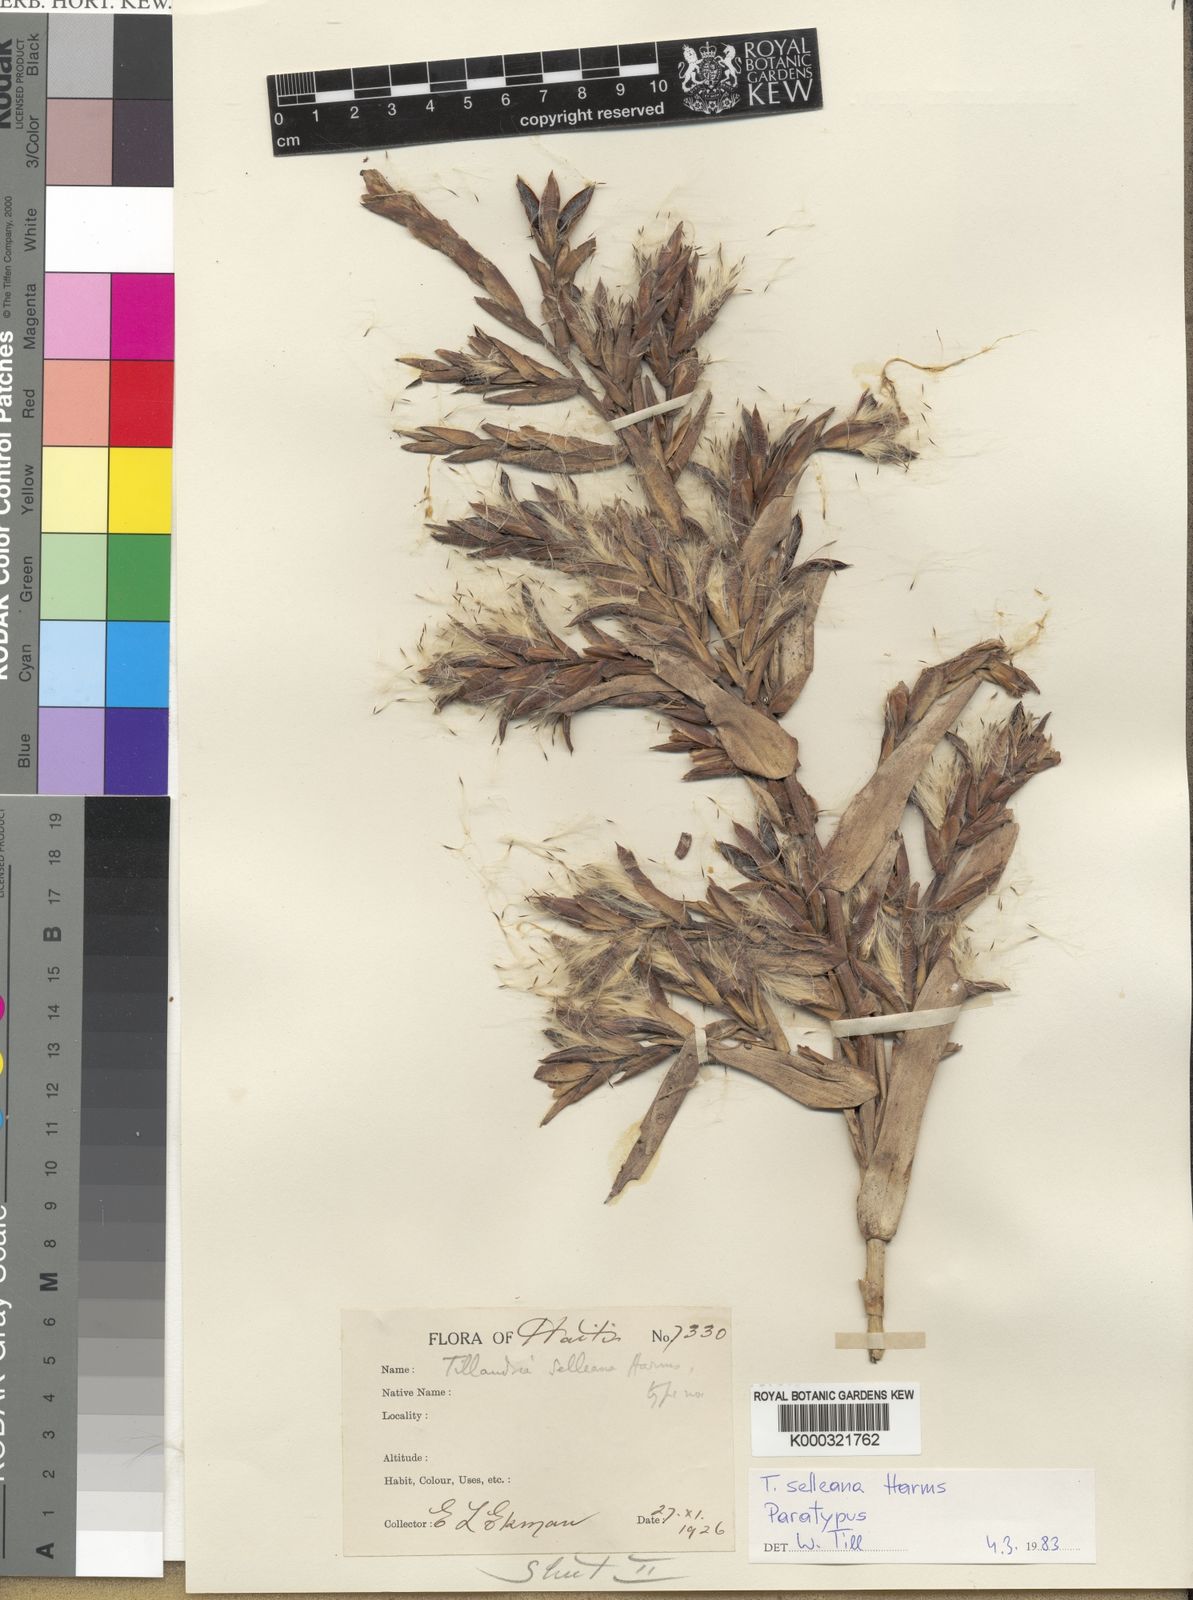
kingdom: Plantae
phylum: Tracheophyta
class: Liliopsida
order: Poales
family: Bromeliaceae
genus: Tillandsia
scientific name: Tillandsia selleana
